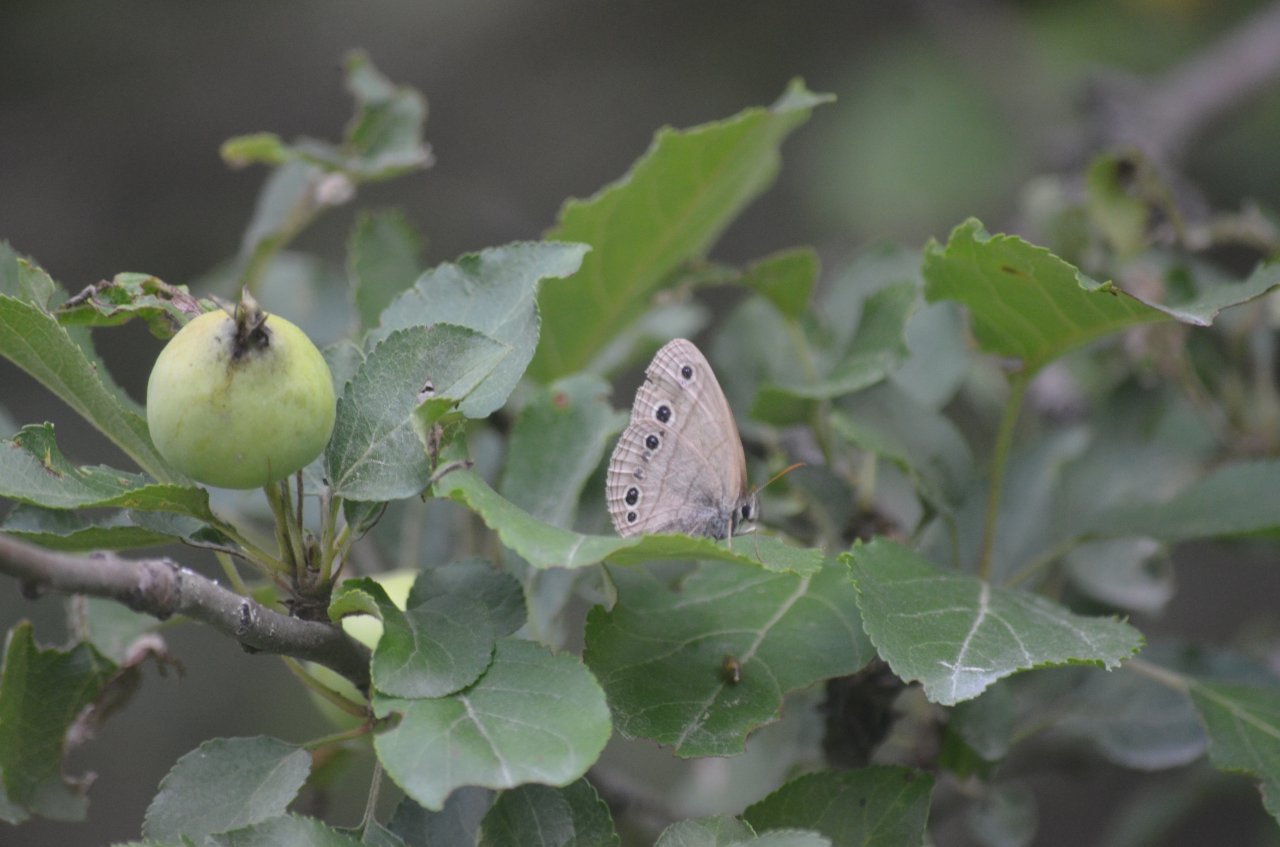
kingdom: Animalia
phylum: Arthropoda
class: Insecta
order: Lepidoptera
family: Nymphalidae
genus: Euptychia
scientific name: Euptychia cymela
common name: Little Wood Satyr
